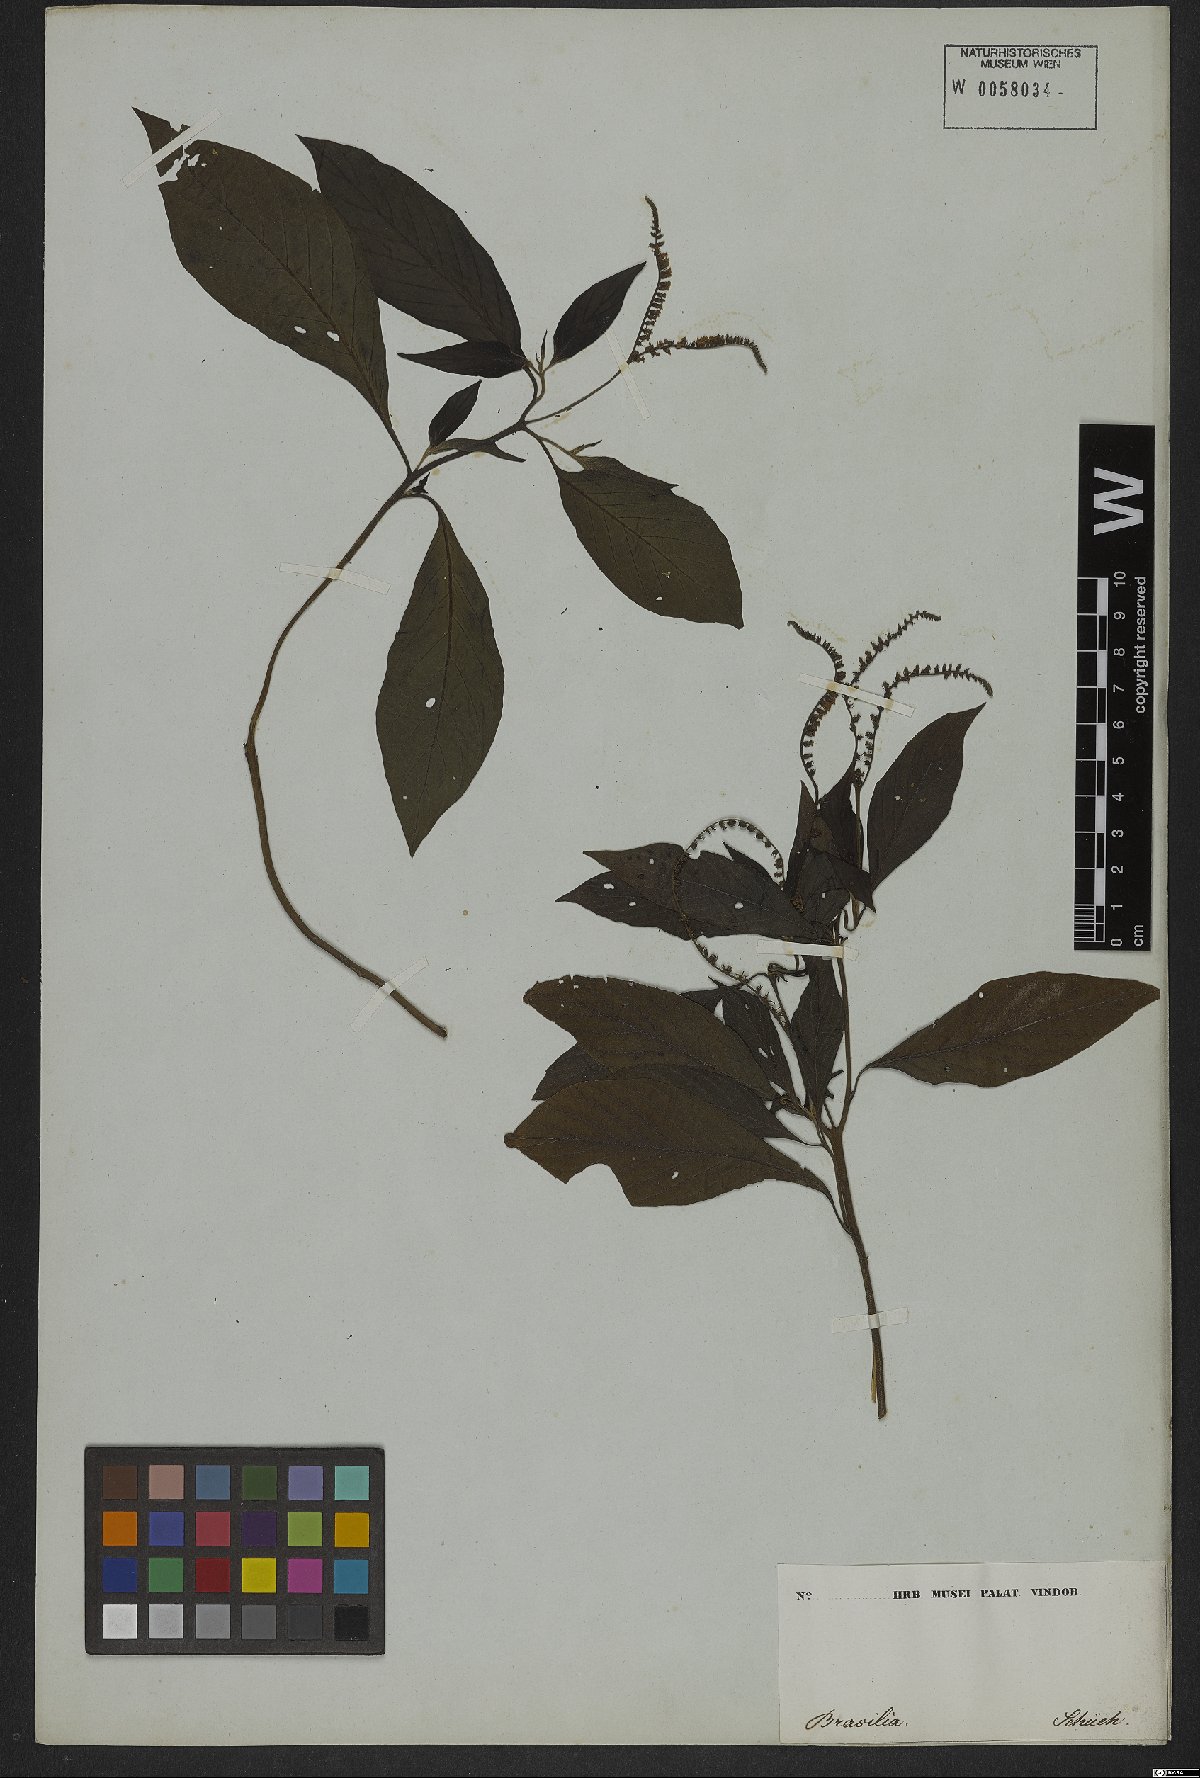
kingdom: Plantae
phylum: Tracheophyta
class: Magnoliopsida
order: Boraginales
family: Heliotropiaceae
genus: Heliotropium
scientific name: Heliotropium transalpinum
